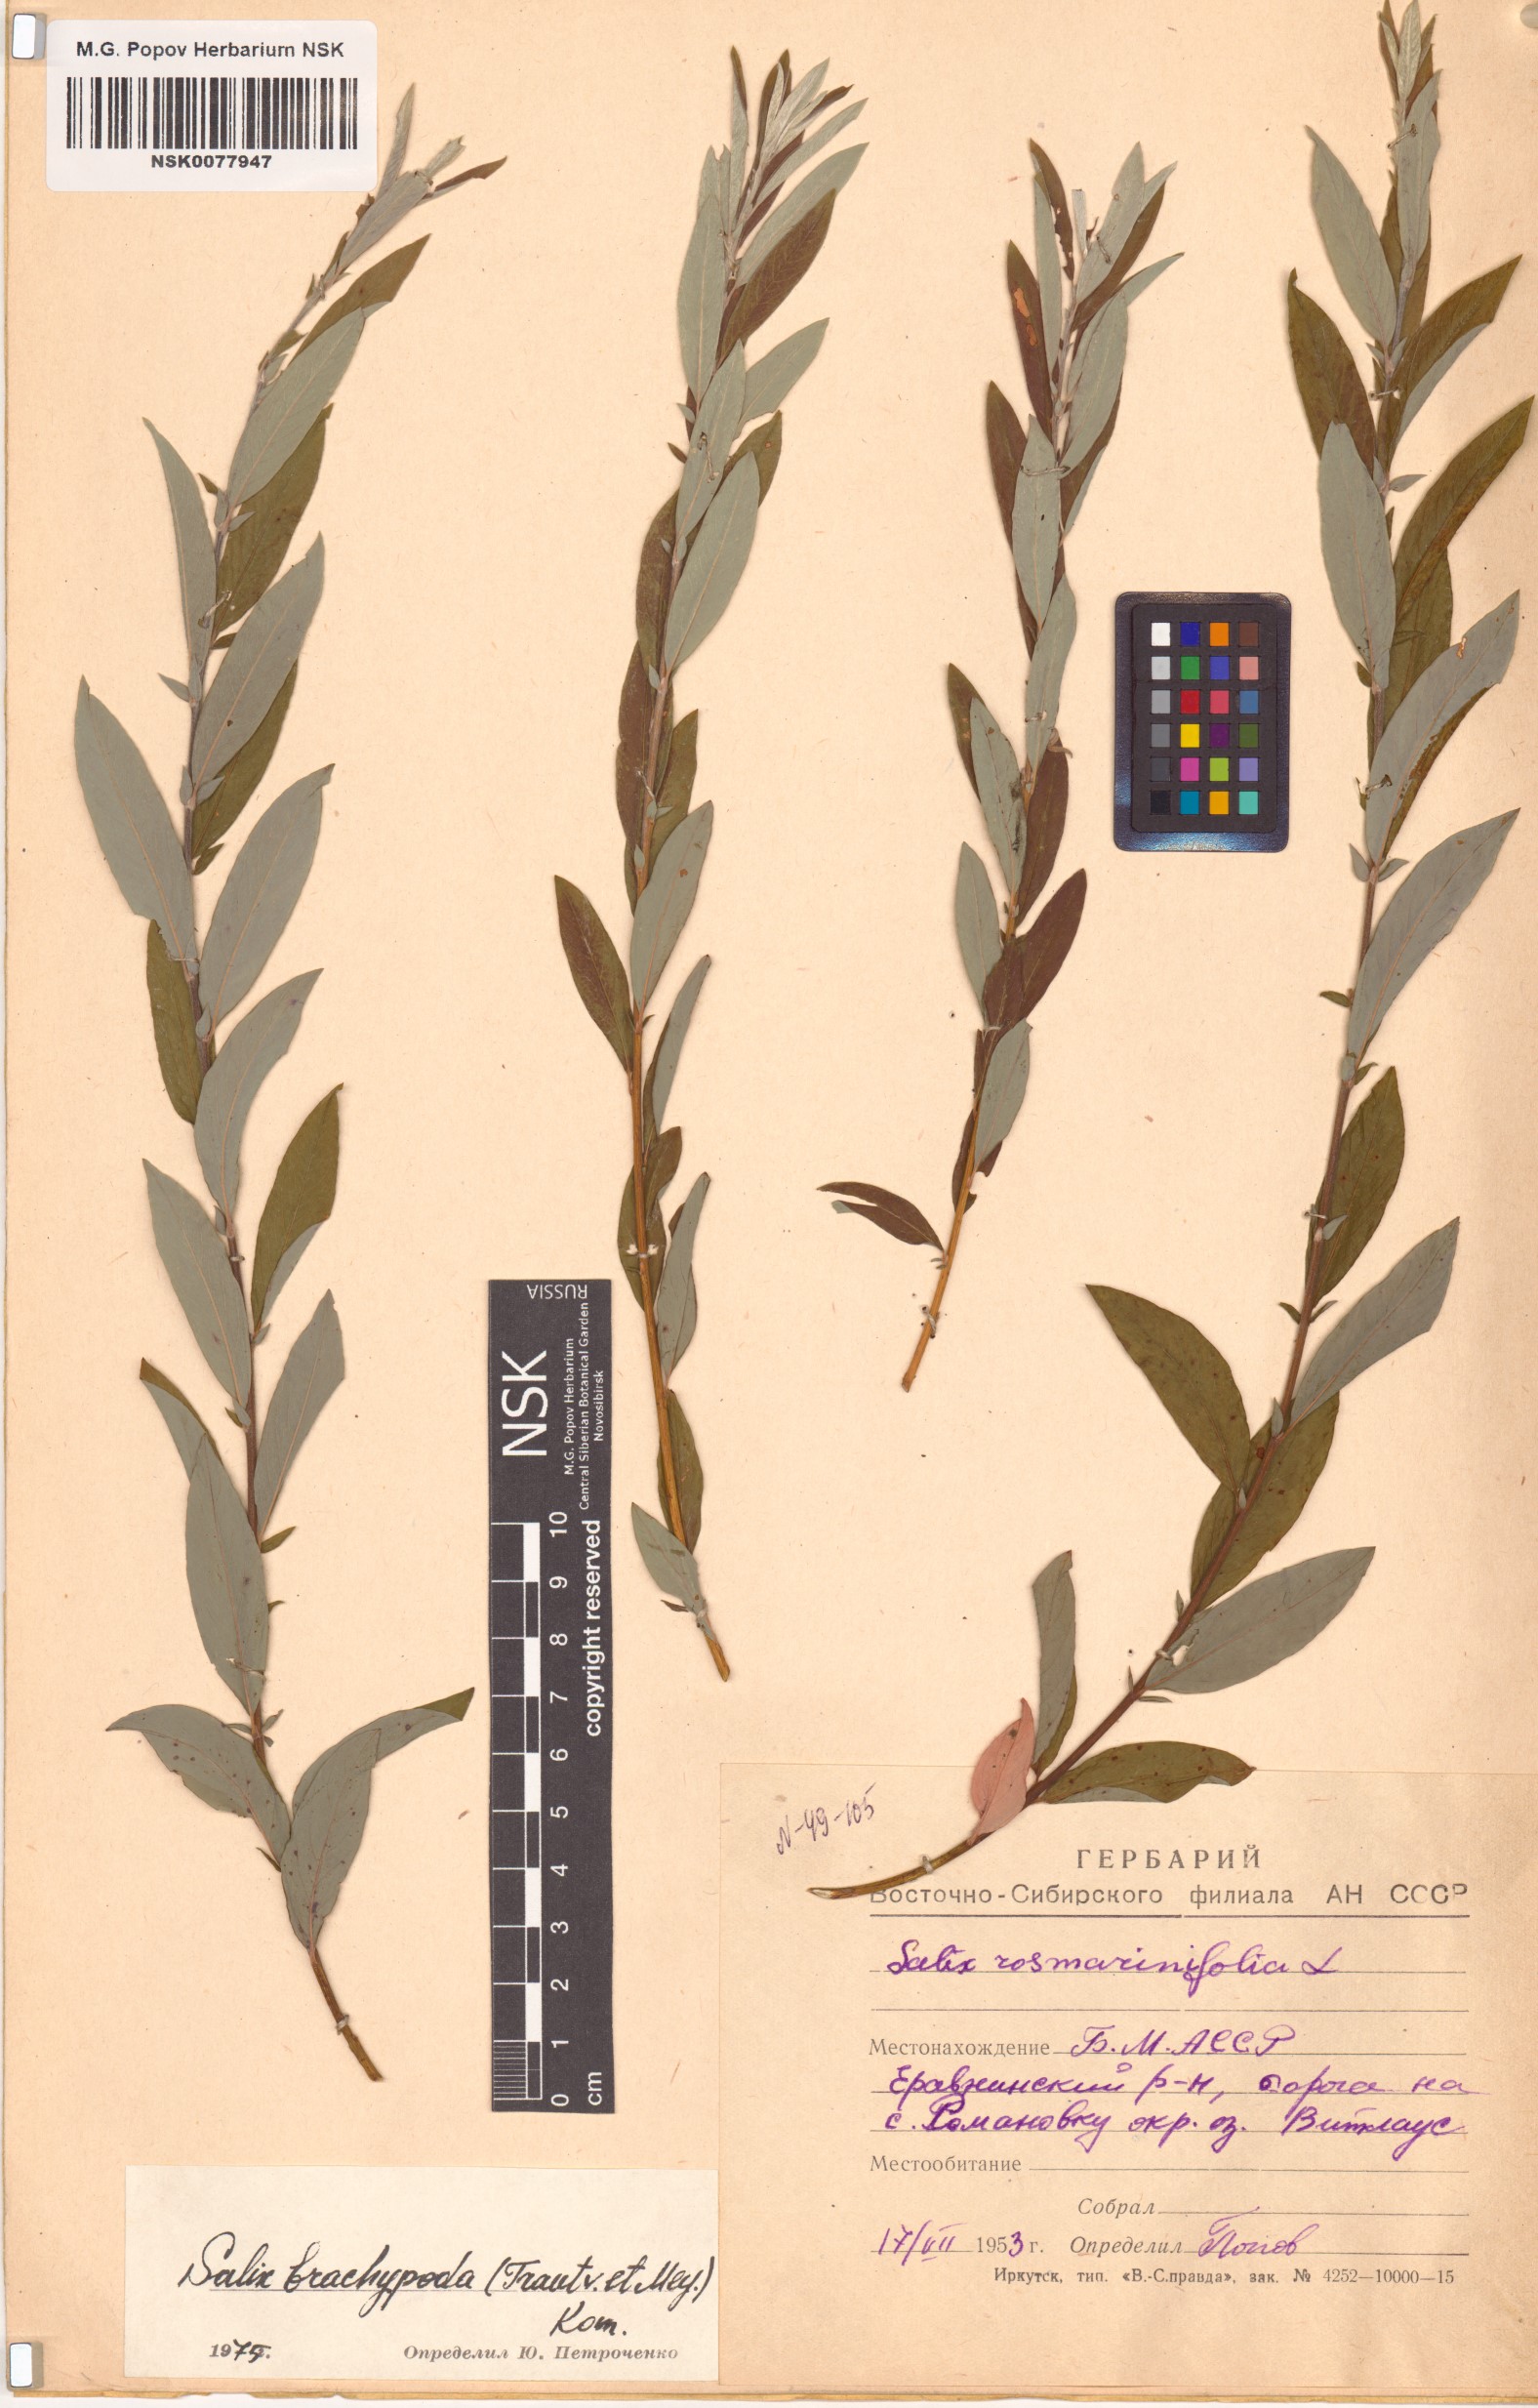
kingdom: Plantae
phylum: Tracheophyta
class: Magnoliopsida
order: Malpighiales
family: Salicaceae
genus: Salix
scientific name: Salix brachypoda
